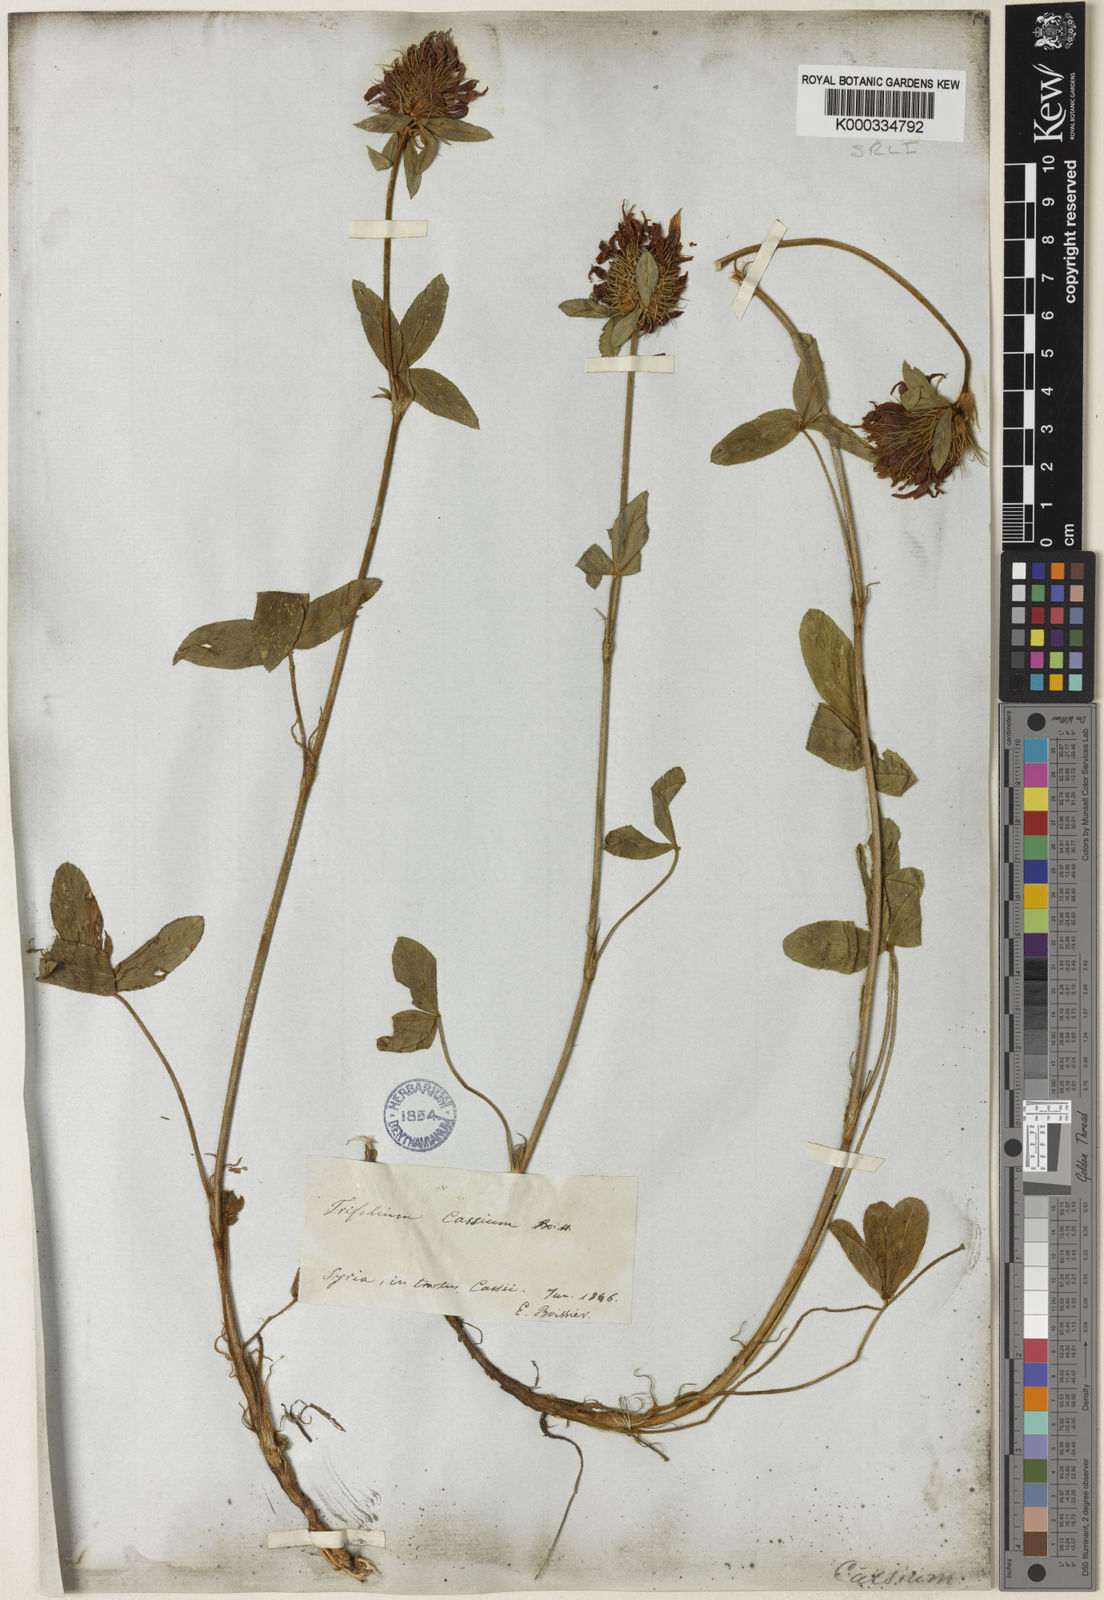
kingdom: Plantae
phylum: Tracheophyta
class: Magnoliopsida
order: Fabales
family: Fabaceae
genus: Trifolium
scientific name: Trifolium ochroleucon
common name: Sulphur clover
